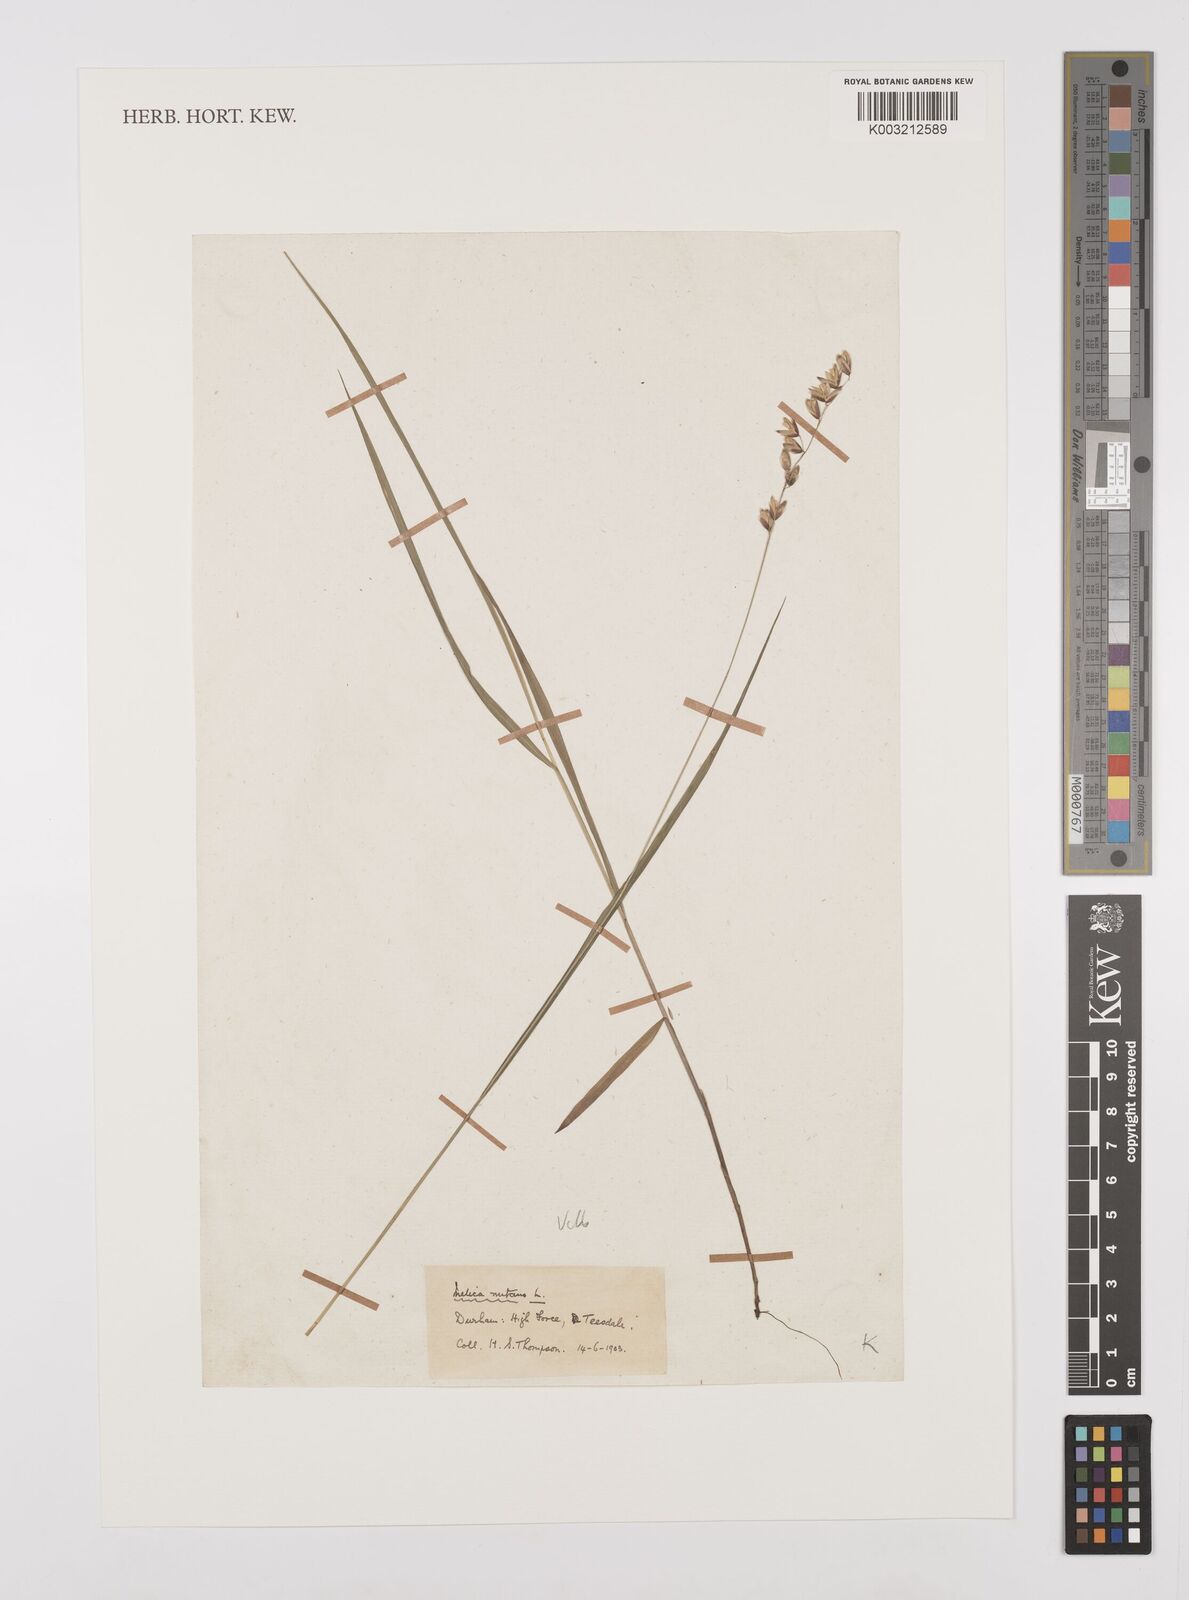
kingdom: Plantae
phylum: Tracheophyta
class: Liliopsida
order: Poales
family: Poaceae
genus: Melica
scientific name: Melica
